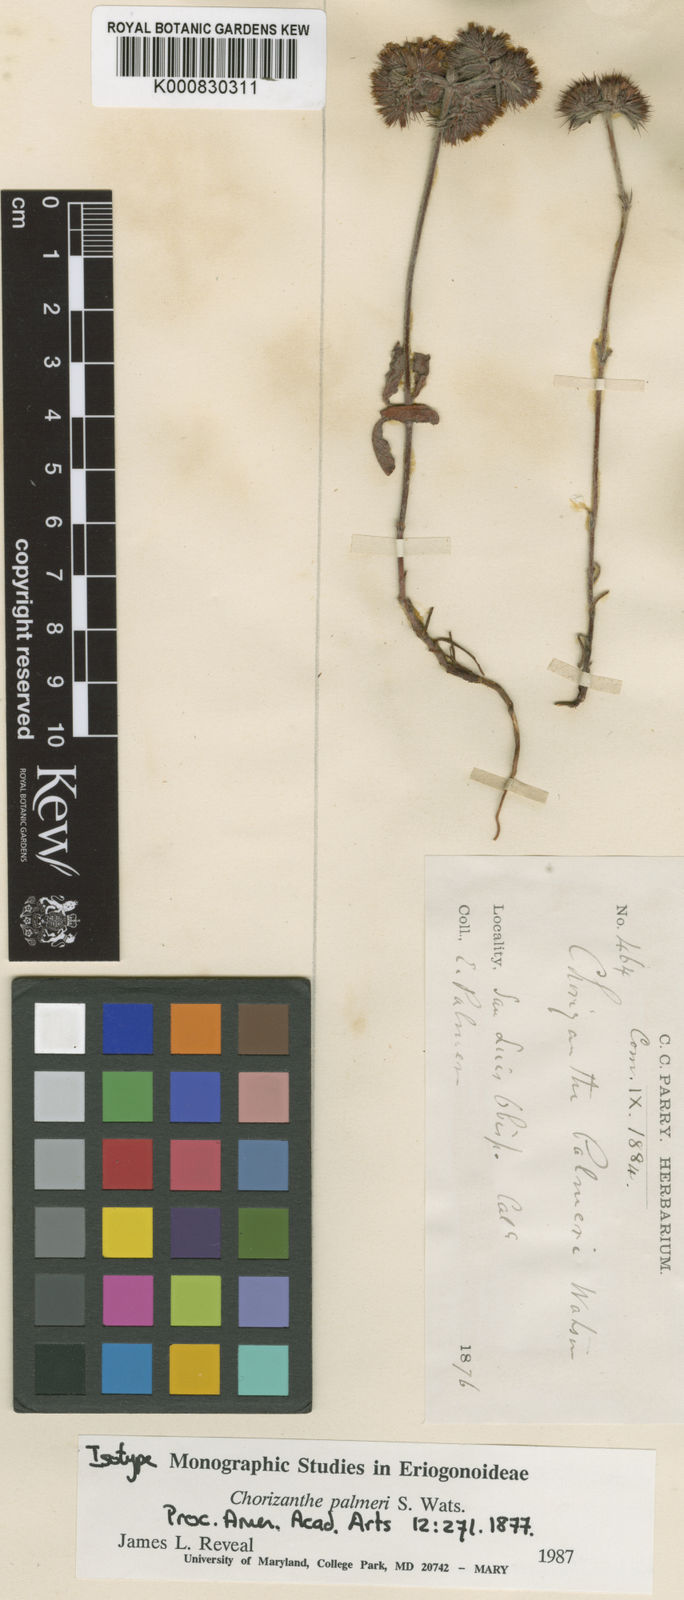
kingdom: Plantae
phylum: Tracheophyta
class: Magnoliopsida
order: Caryophyllales
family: Polygonaceae
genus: Chorizanthe
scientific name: Chorizanthe palmeri
